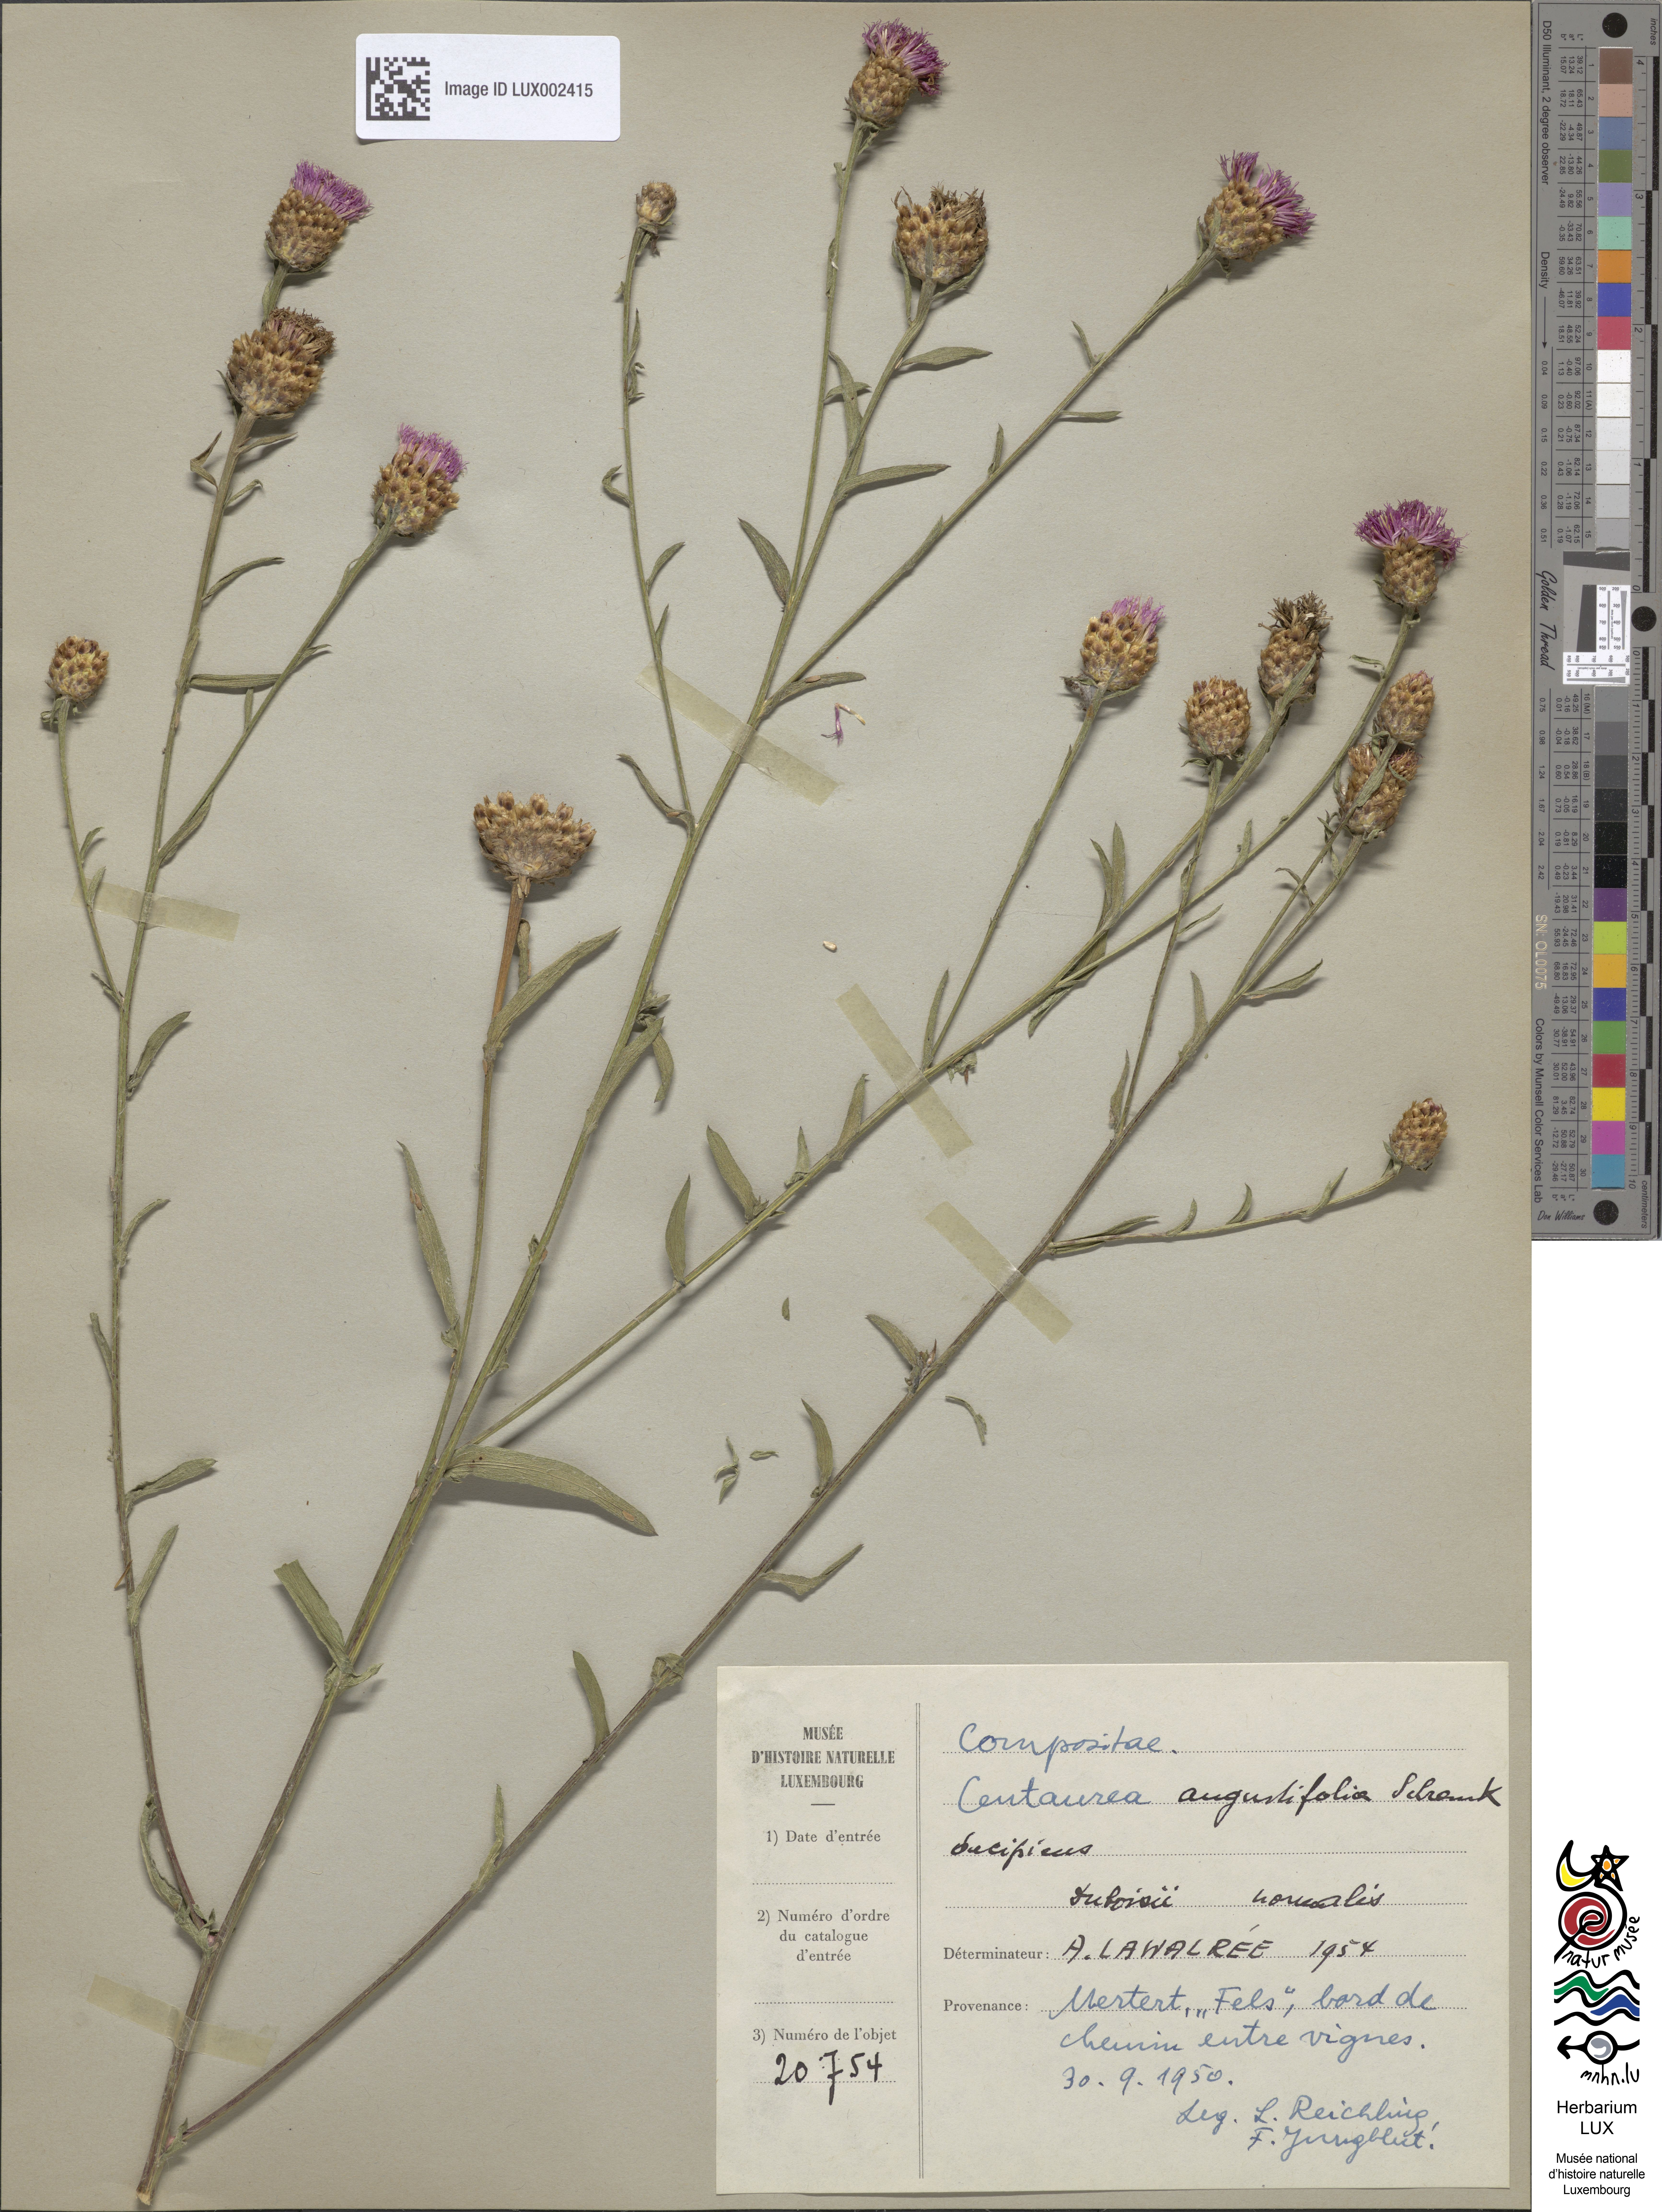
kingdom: Plantae
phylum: Tracheophyta
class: Magnoliopsida
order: Asterales
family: Asteraceae
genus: Centaurea
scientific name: Centaurea pannonica
